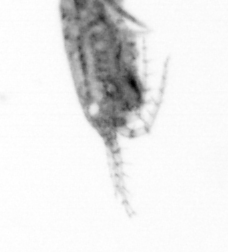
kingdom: Animalia
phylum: Arthropoda
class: Copepoda
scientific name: Copepoda
